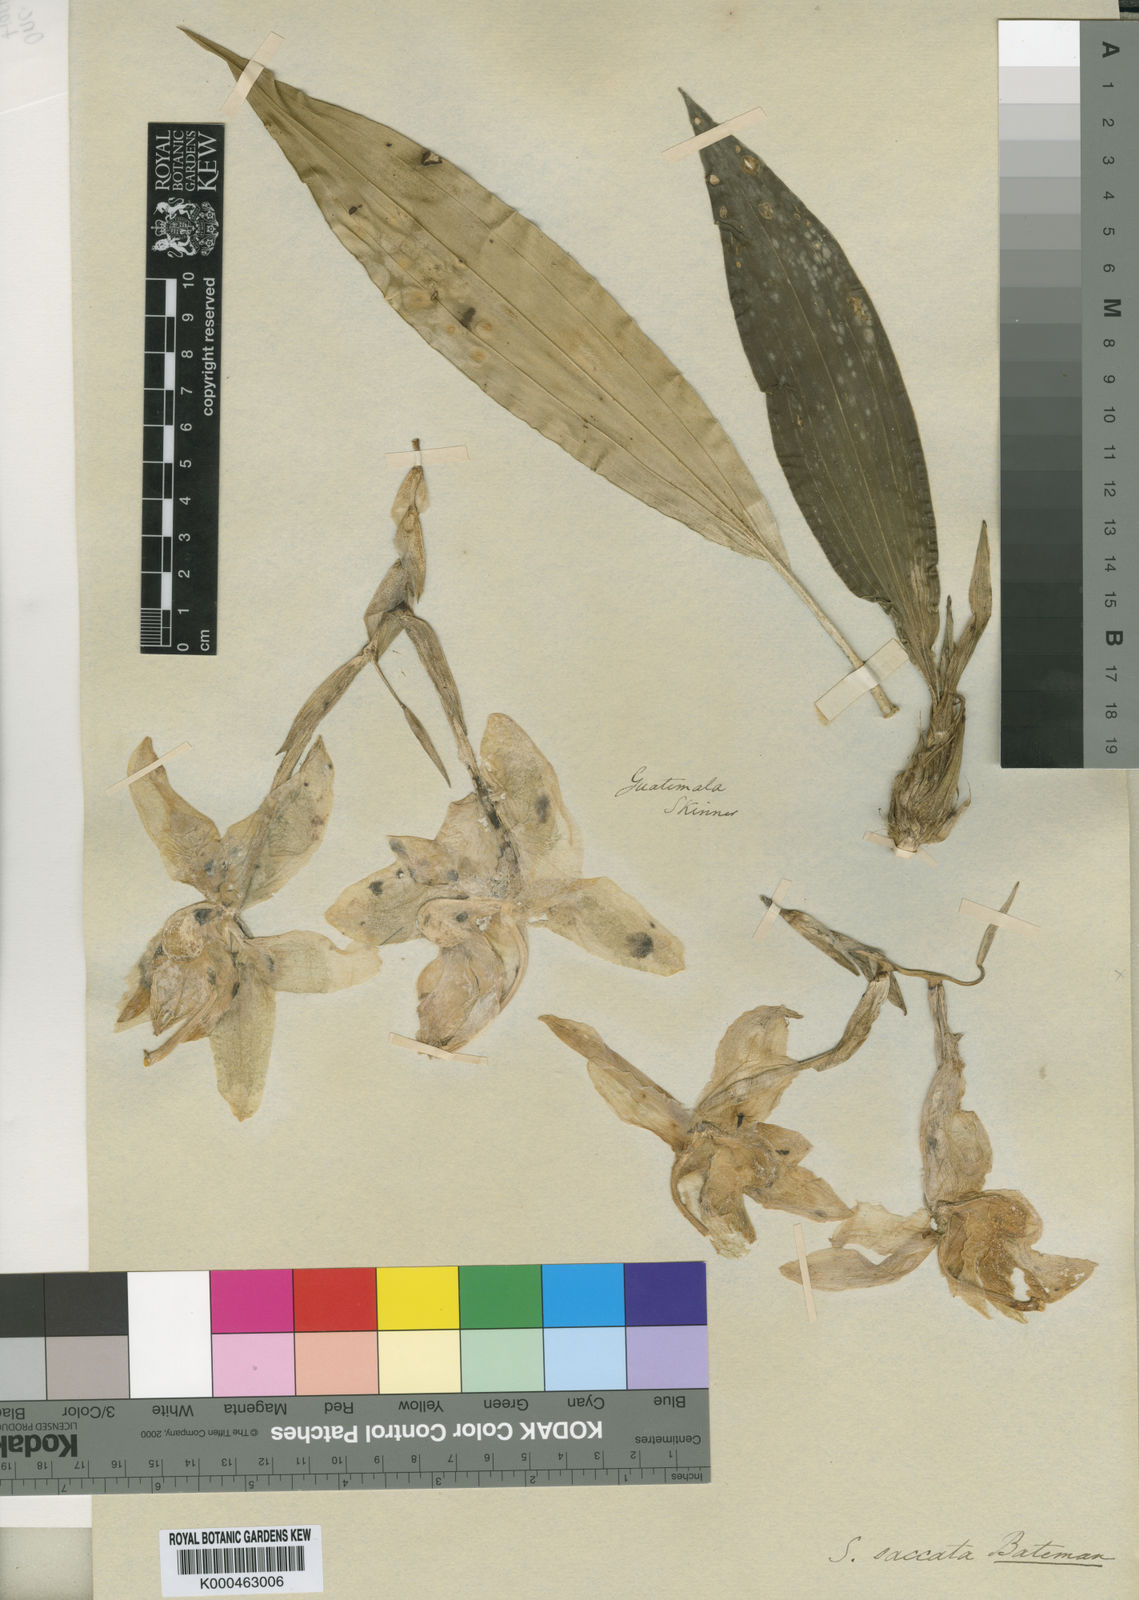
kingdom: Plantae
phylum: Tracheophyta
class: Liliopsida
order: Asparagales
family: Orchidaceae
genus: Stanhopea
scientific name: Stanhopea saccata
